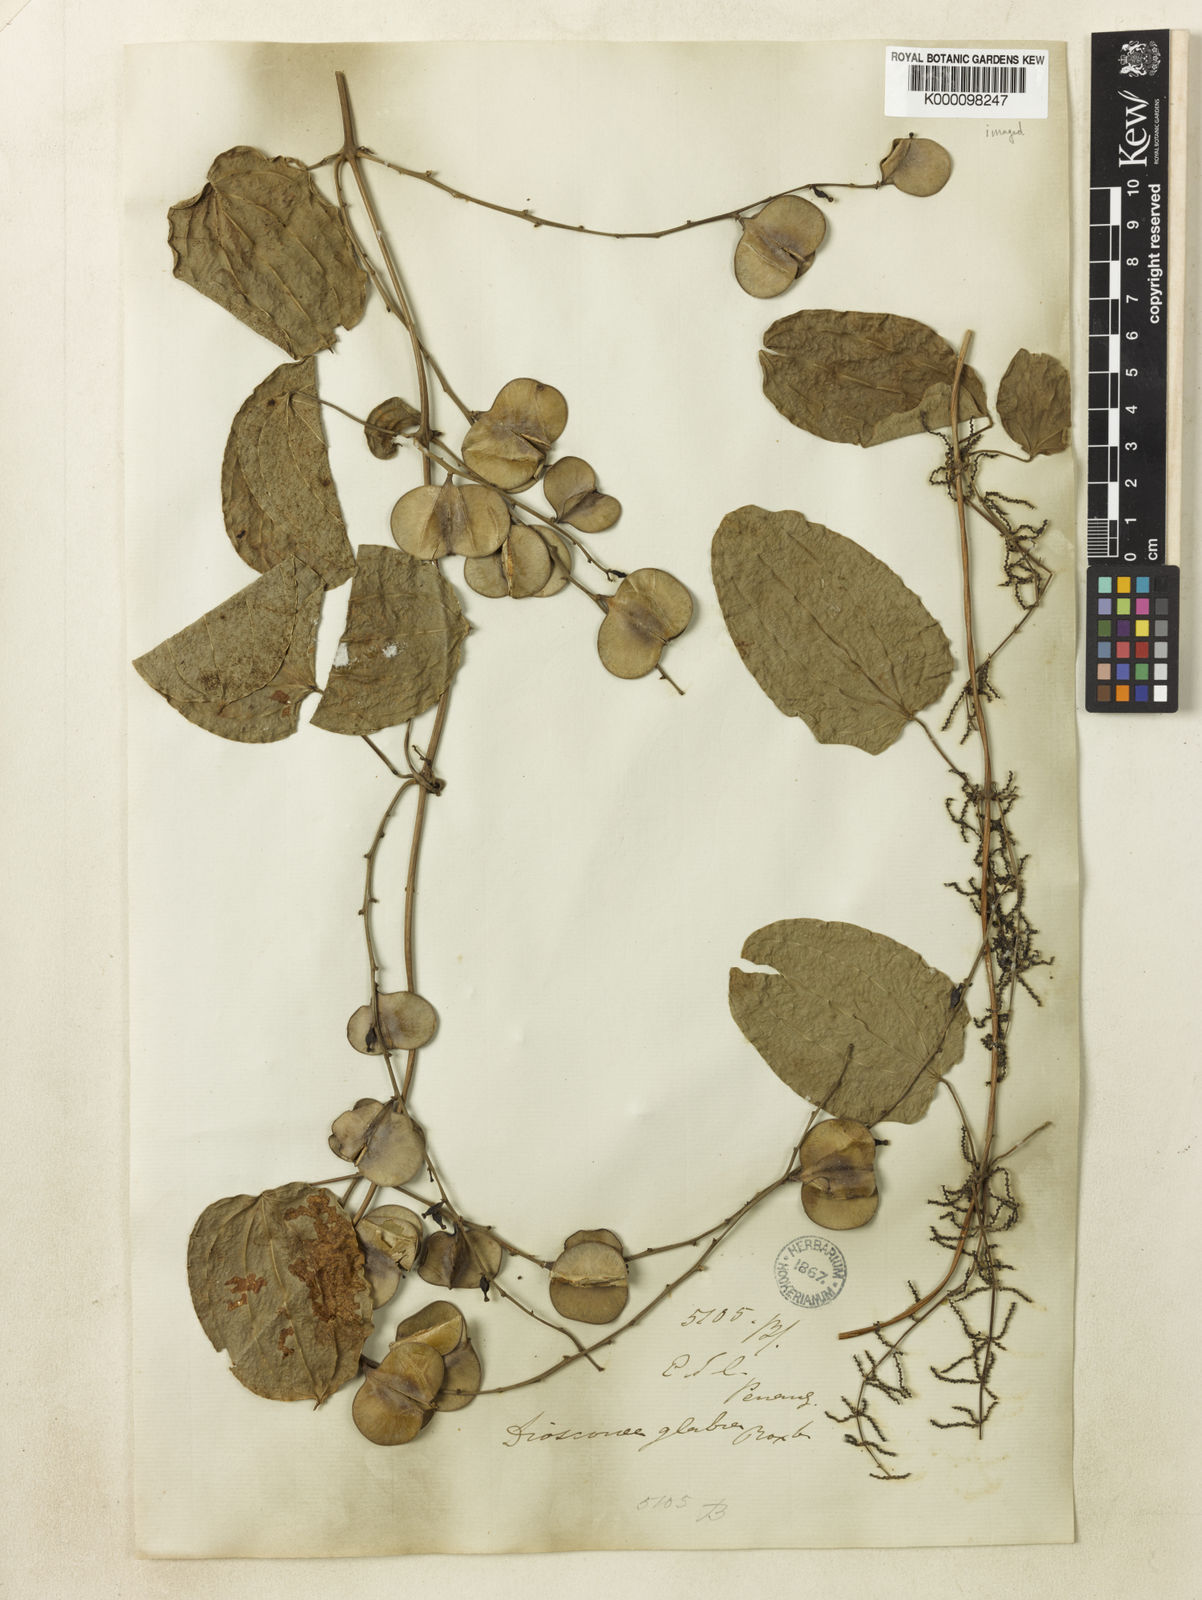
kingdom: Plantae
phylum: Tracheophyta
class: Liliopsida
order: Dioscoreales
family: Dioscoreaceae
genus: Dioscorea
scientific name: Dioscorea glabra
